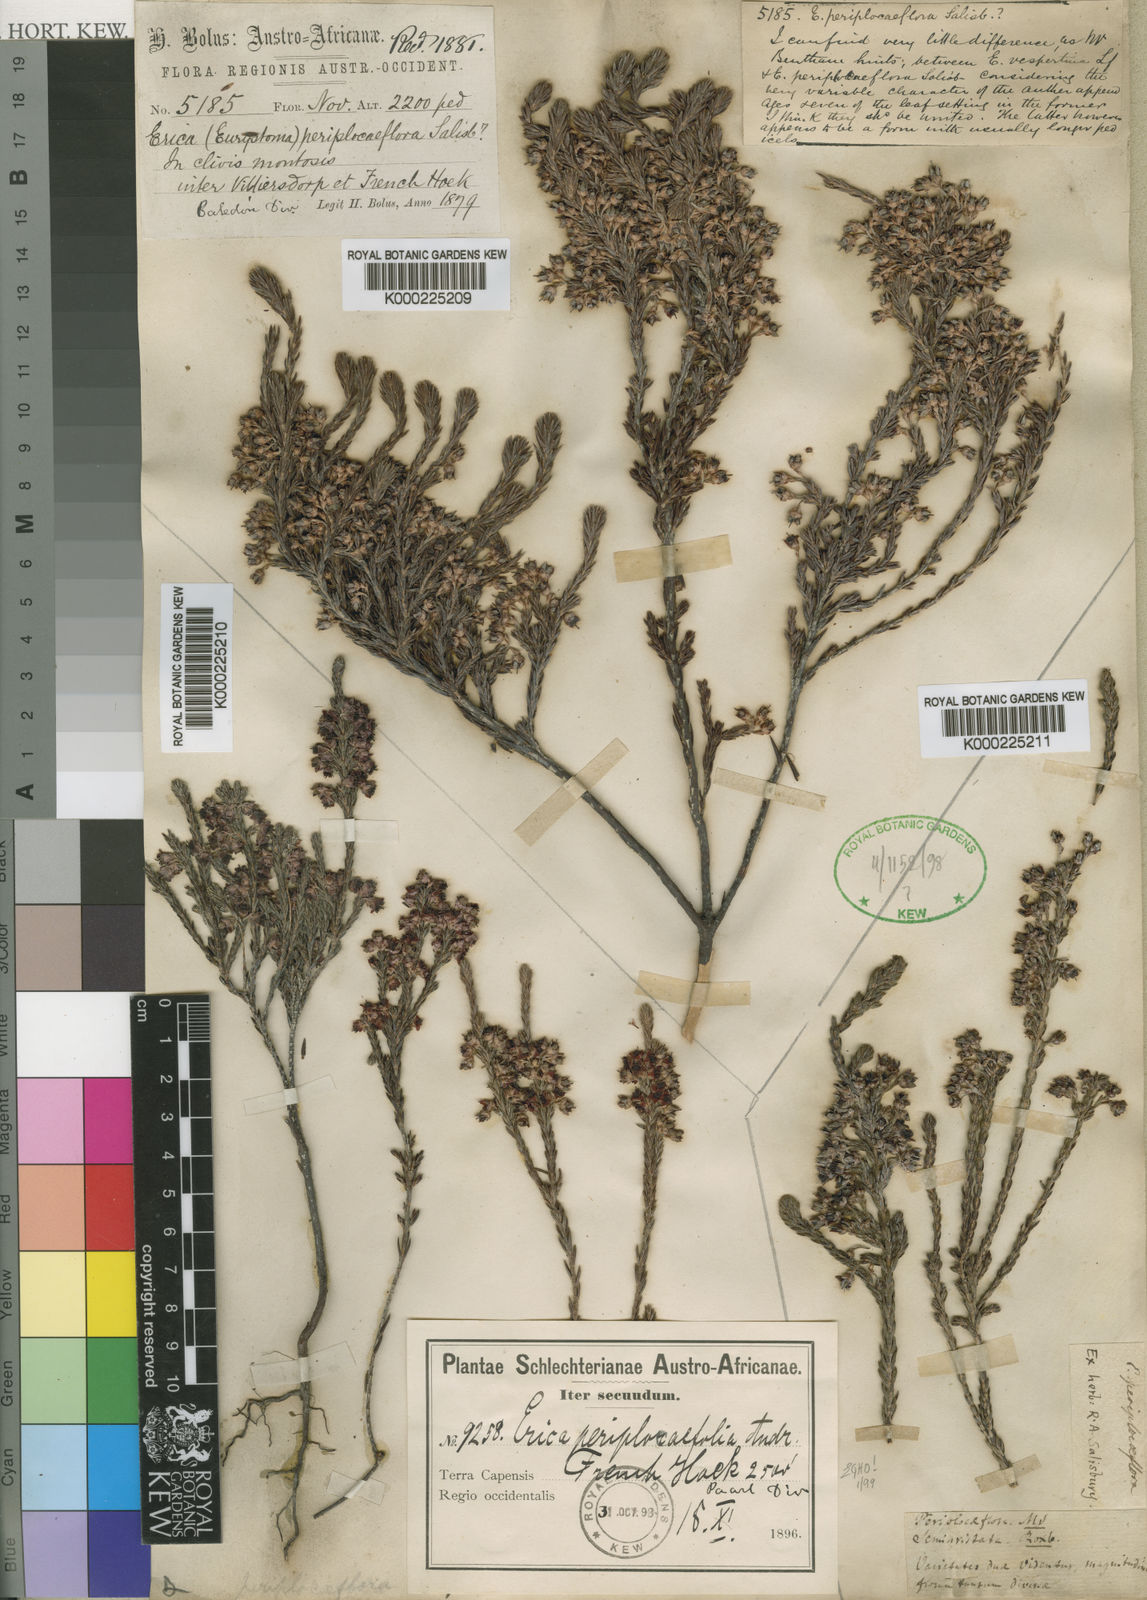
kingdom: Plantae
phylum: Tracheophyta
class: Magnoliopsida
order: Ericales
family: Ericaceae
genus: Erica
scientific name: Erica calycina
